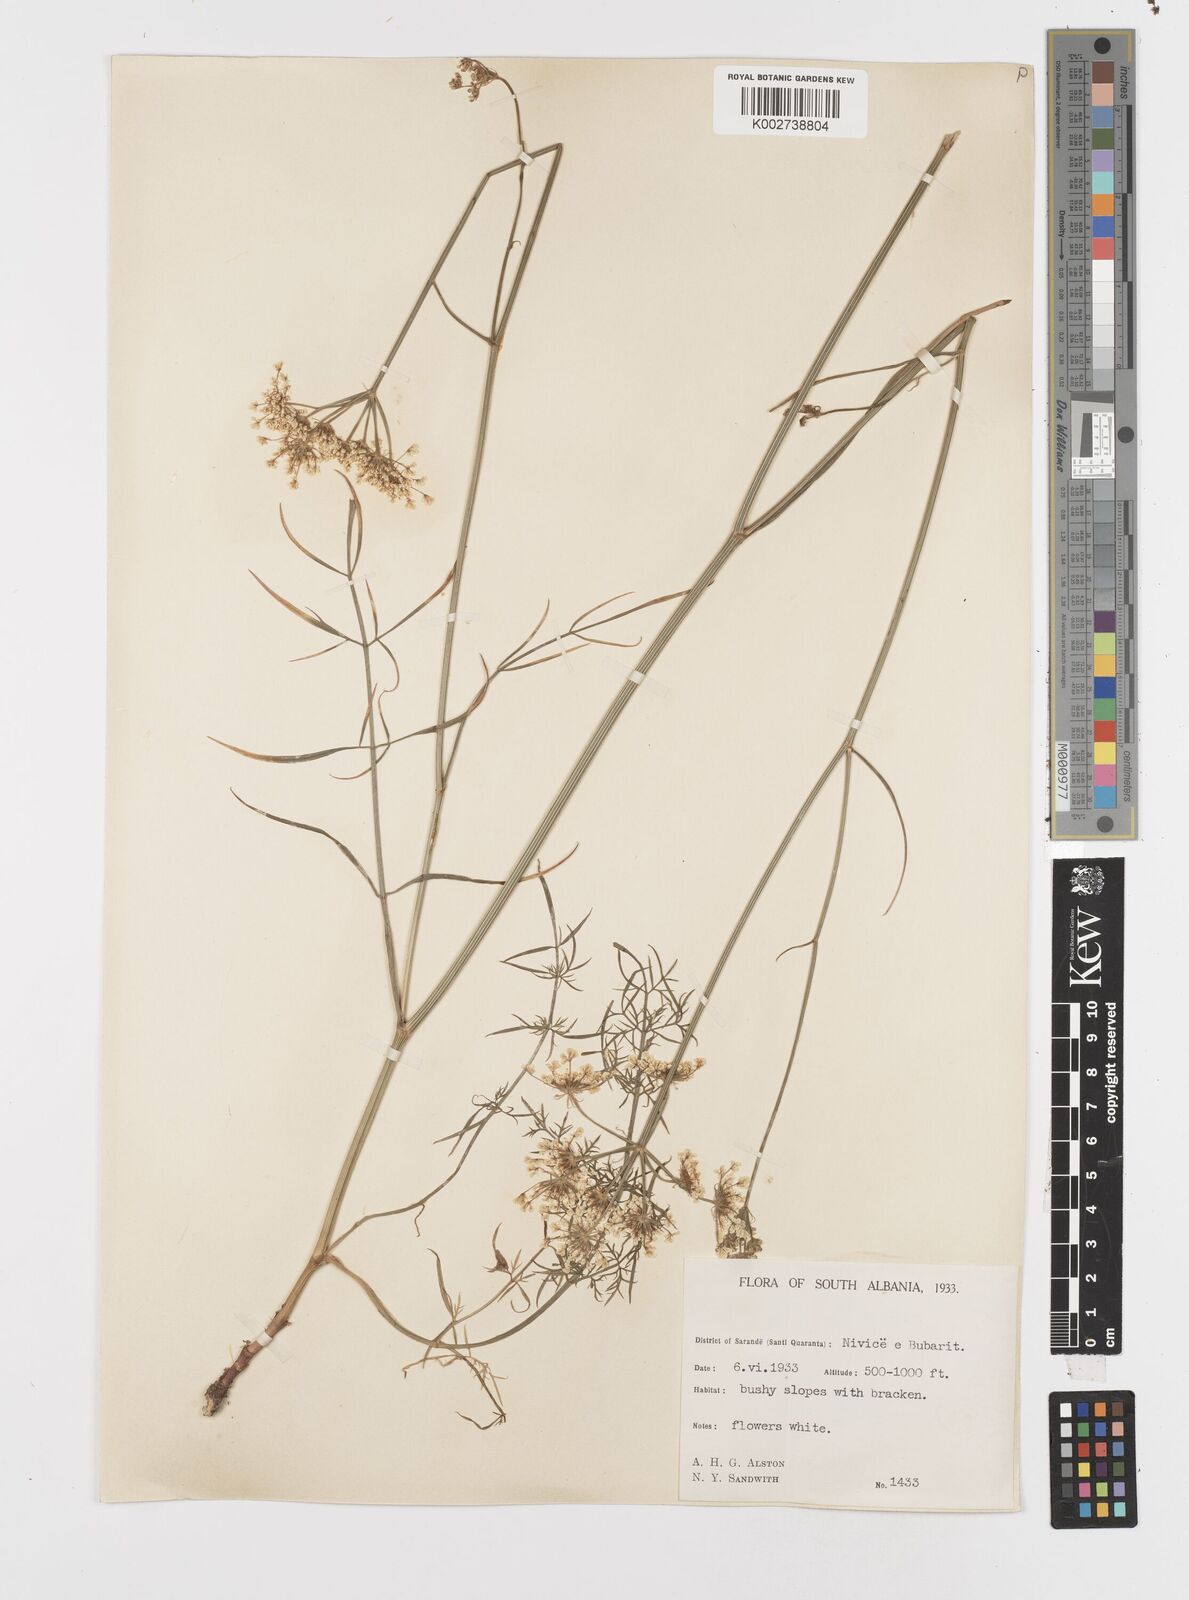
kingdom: Plantae
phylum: Tracheophyta
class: Magnoliopsida
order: Apiales
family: Apiaceae
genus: Oenanthe
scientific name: Oenanthe
